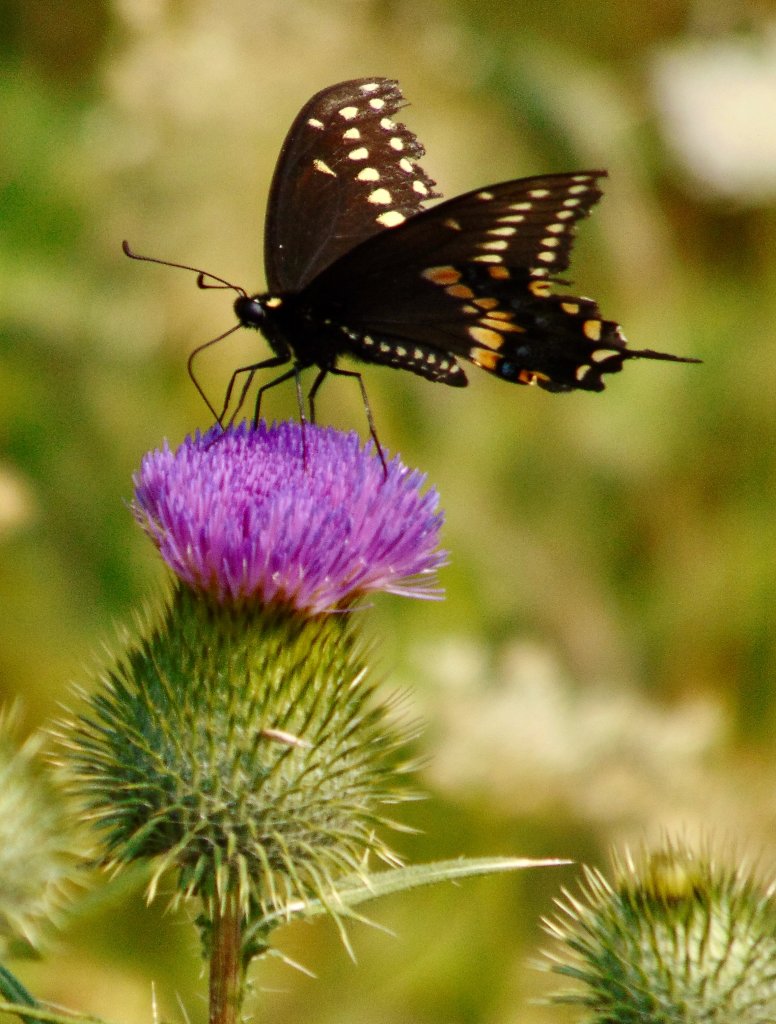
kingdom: Animalia
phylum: Arthropoda
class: Insecta
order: Lepidoptera
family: Papilionidae
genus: Papilio
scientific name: Papilio polyxenes
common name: Black Swallowtail
